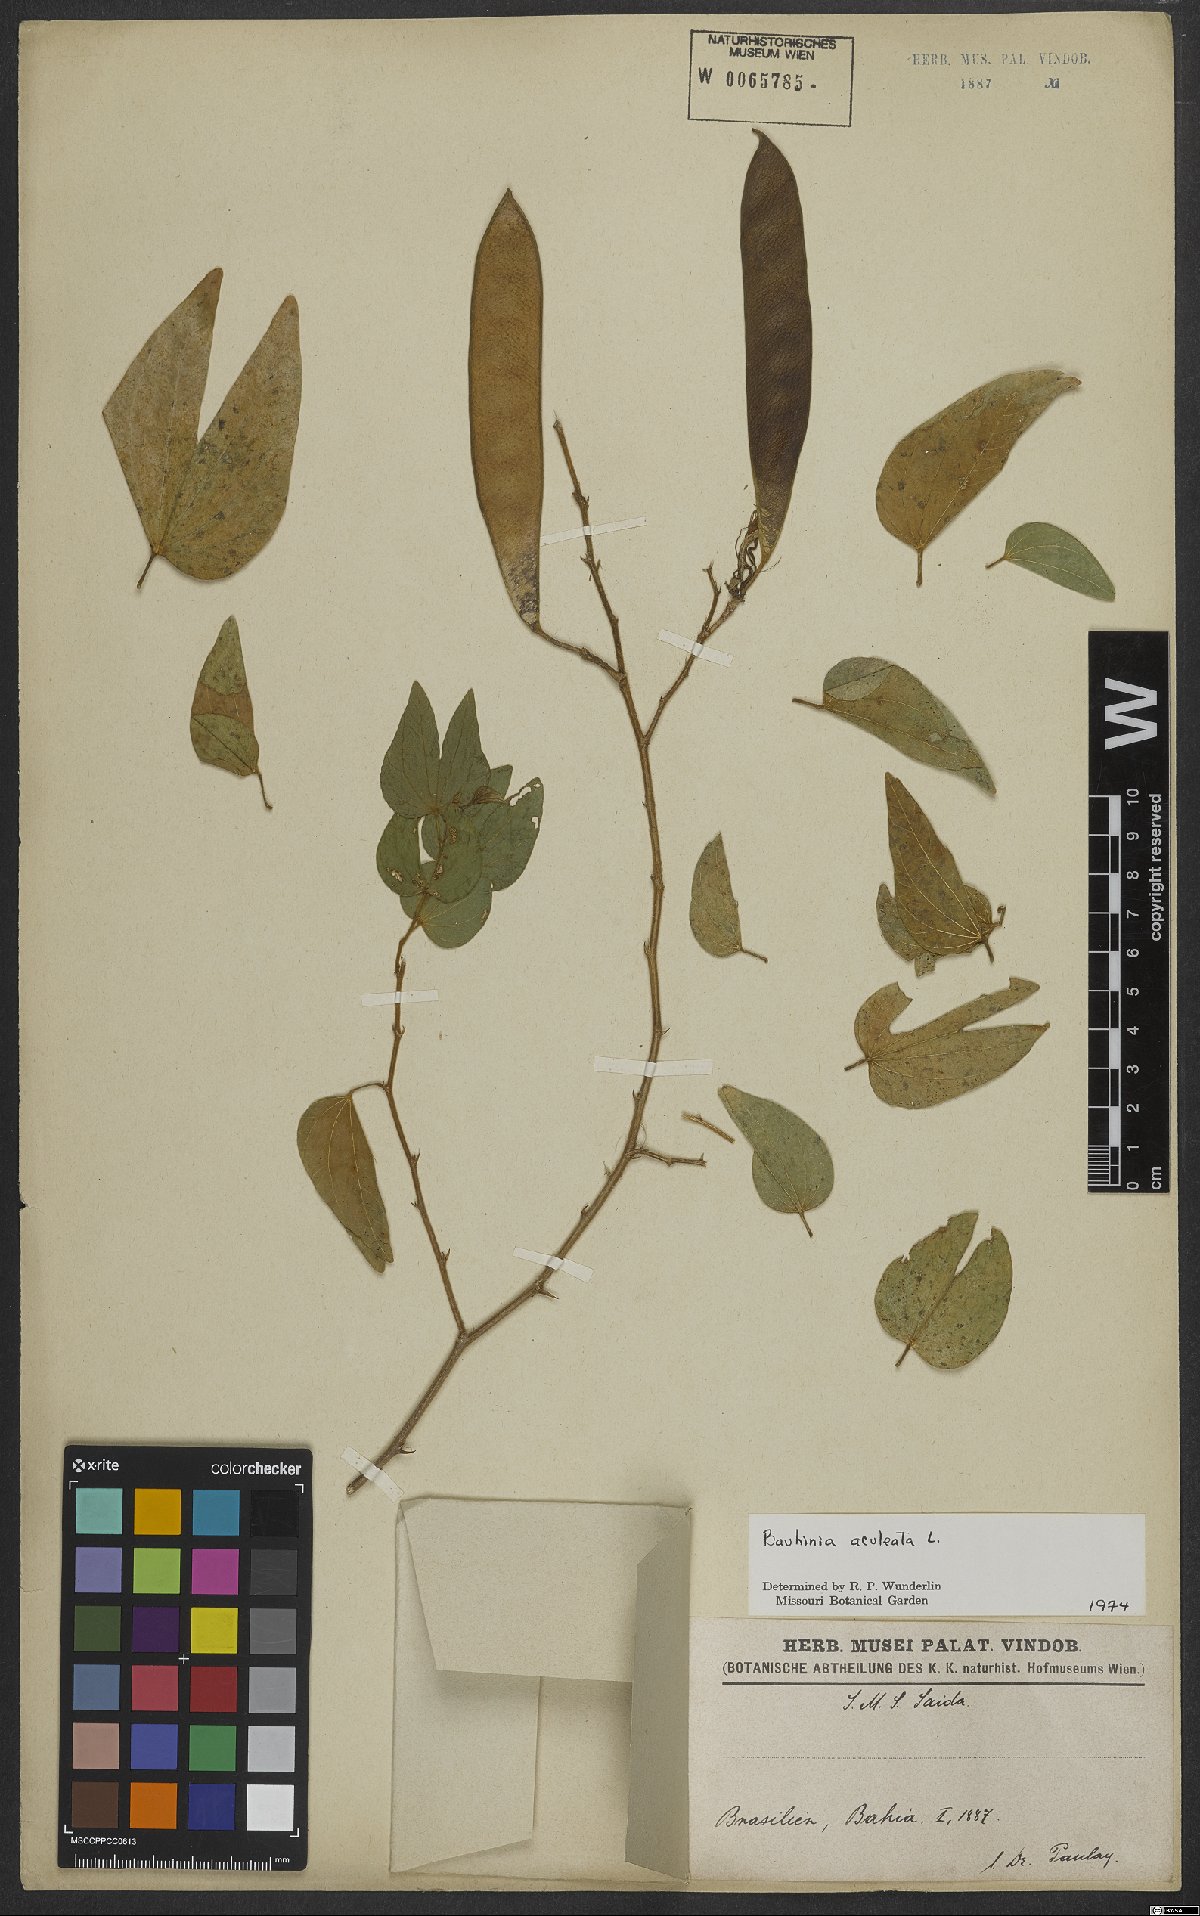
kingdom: Plantae
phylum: Tracheophyta
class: Magnoliopsida
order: Fabales
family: Fabaceae
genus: Bauhinia
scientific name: Bauhinia aculeata
